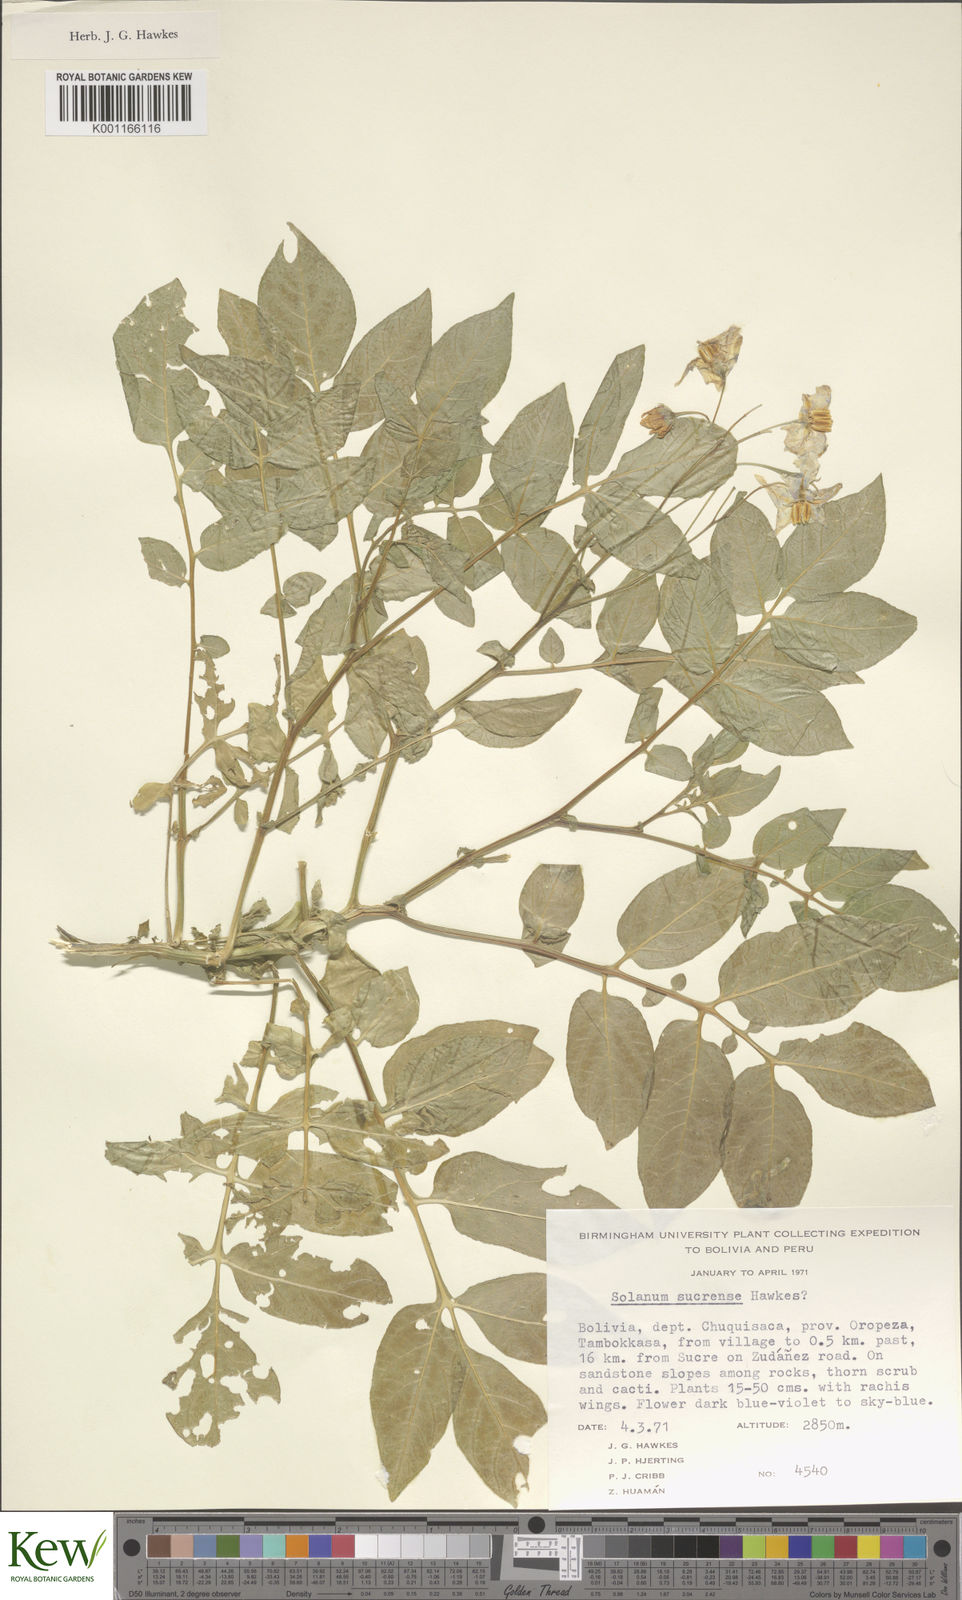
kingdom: Plantae
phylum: Tracheophyta
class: Magnoliopsida
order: Solanales
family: Solanaceae
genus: Solanum
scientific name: Solanum brevicaule
